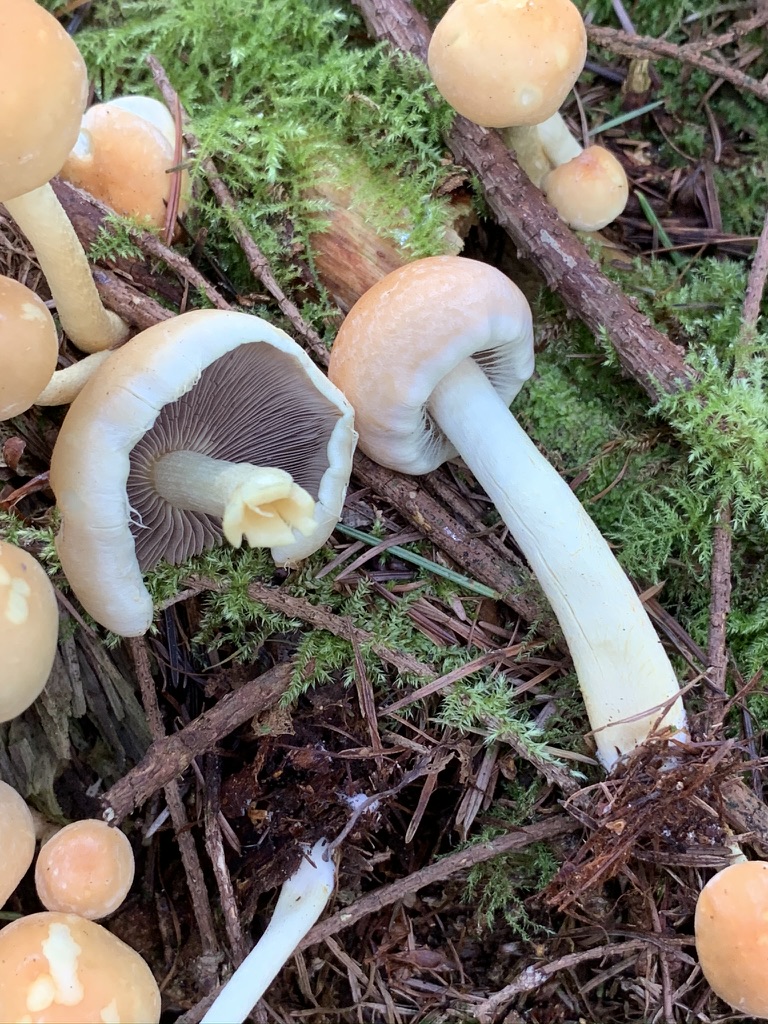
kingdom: Fungi
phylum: Basidiomycota
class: Agaricomycetes
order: Agaricales
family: Strophariaceae
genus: Hypholoma
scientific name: Hypholoma lateritium
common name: teglrød svovlhat
